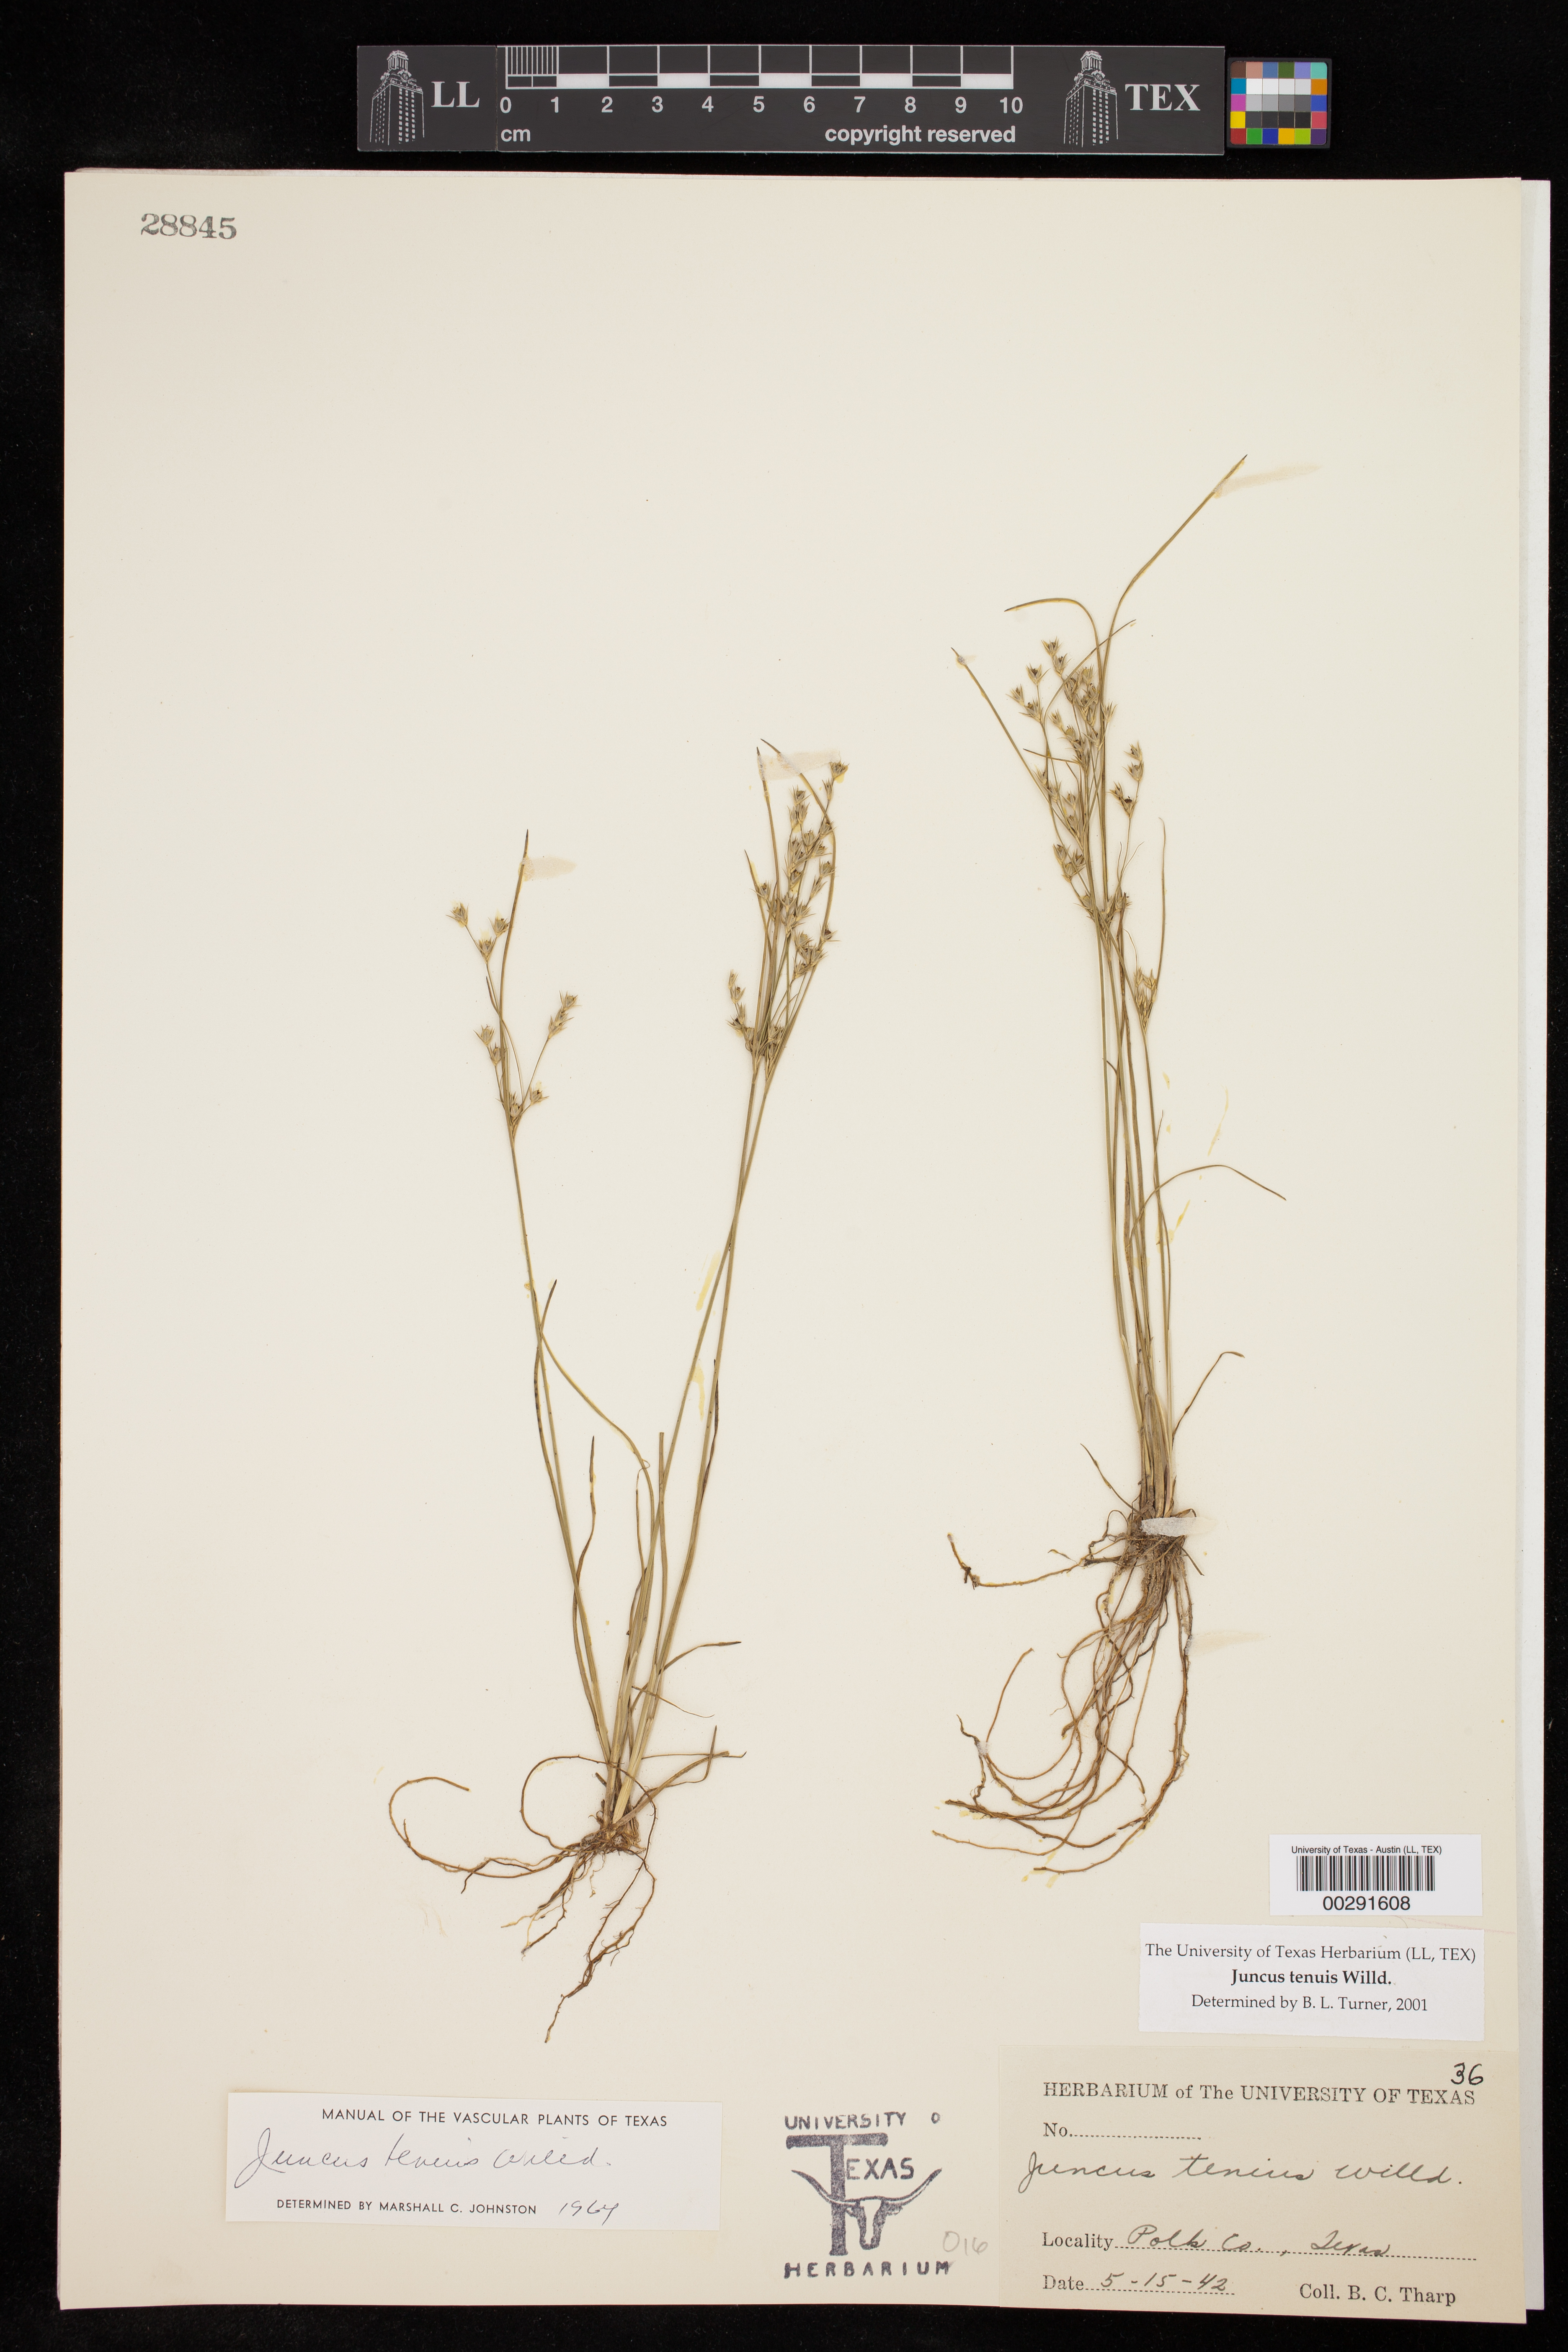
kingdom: Plantae
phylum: Tracheophyta
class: Liliopsida
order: Poales
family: Juncaceae
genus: Juncus
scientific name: Juncus tenuis
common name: Slender rush
